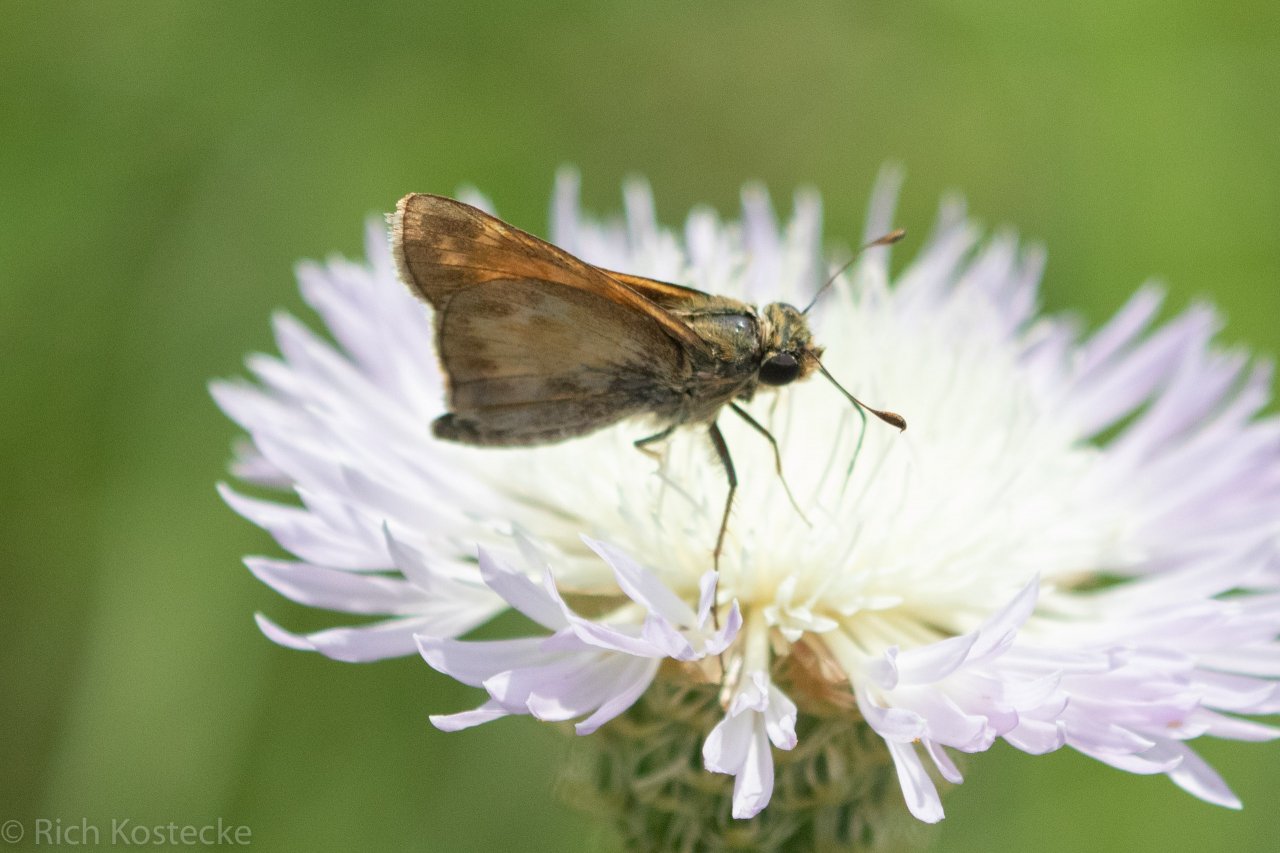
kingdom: Animalia
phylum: Arthropoda
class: Insecta
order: Lepidoptera
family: Hesperiidae
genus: Atalopedes
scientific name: Atalopedes campestris
